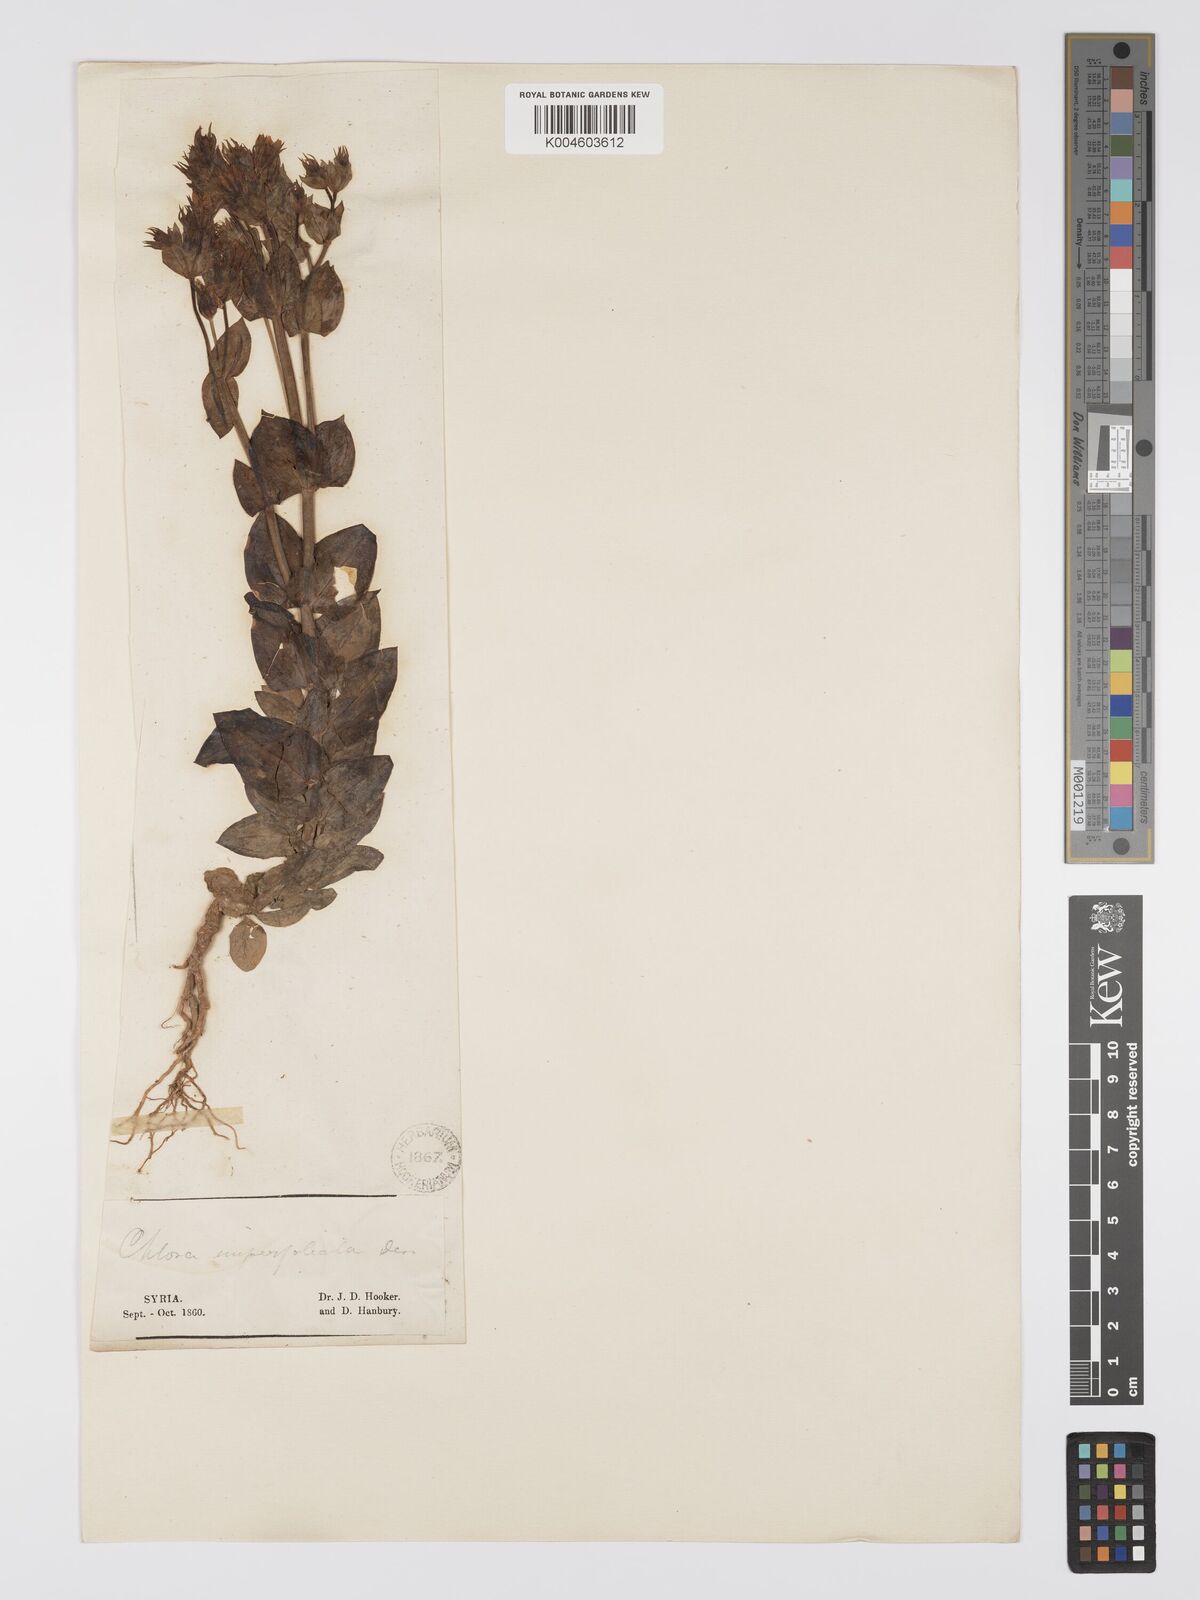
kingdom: Plantae
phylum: Tracheophyta
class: Magnoliopsida
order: Gentianales
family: Gentianaceae
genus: Blackstonia
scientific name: Blackstonia acuminata
